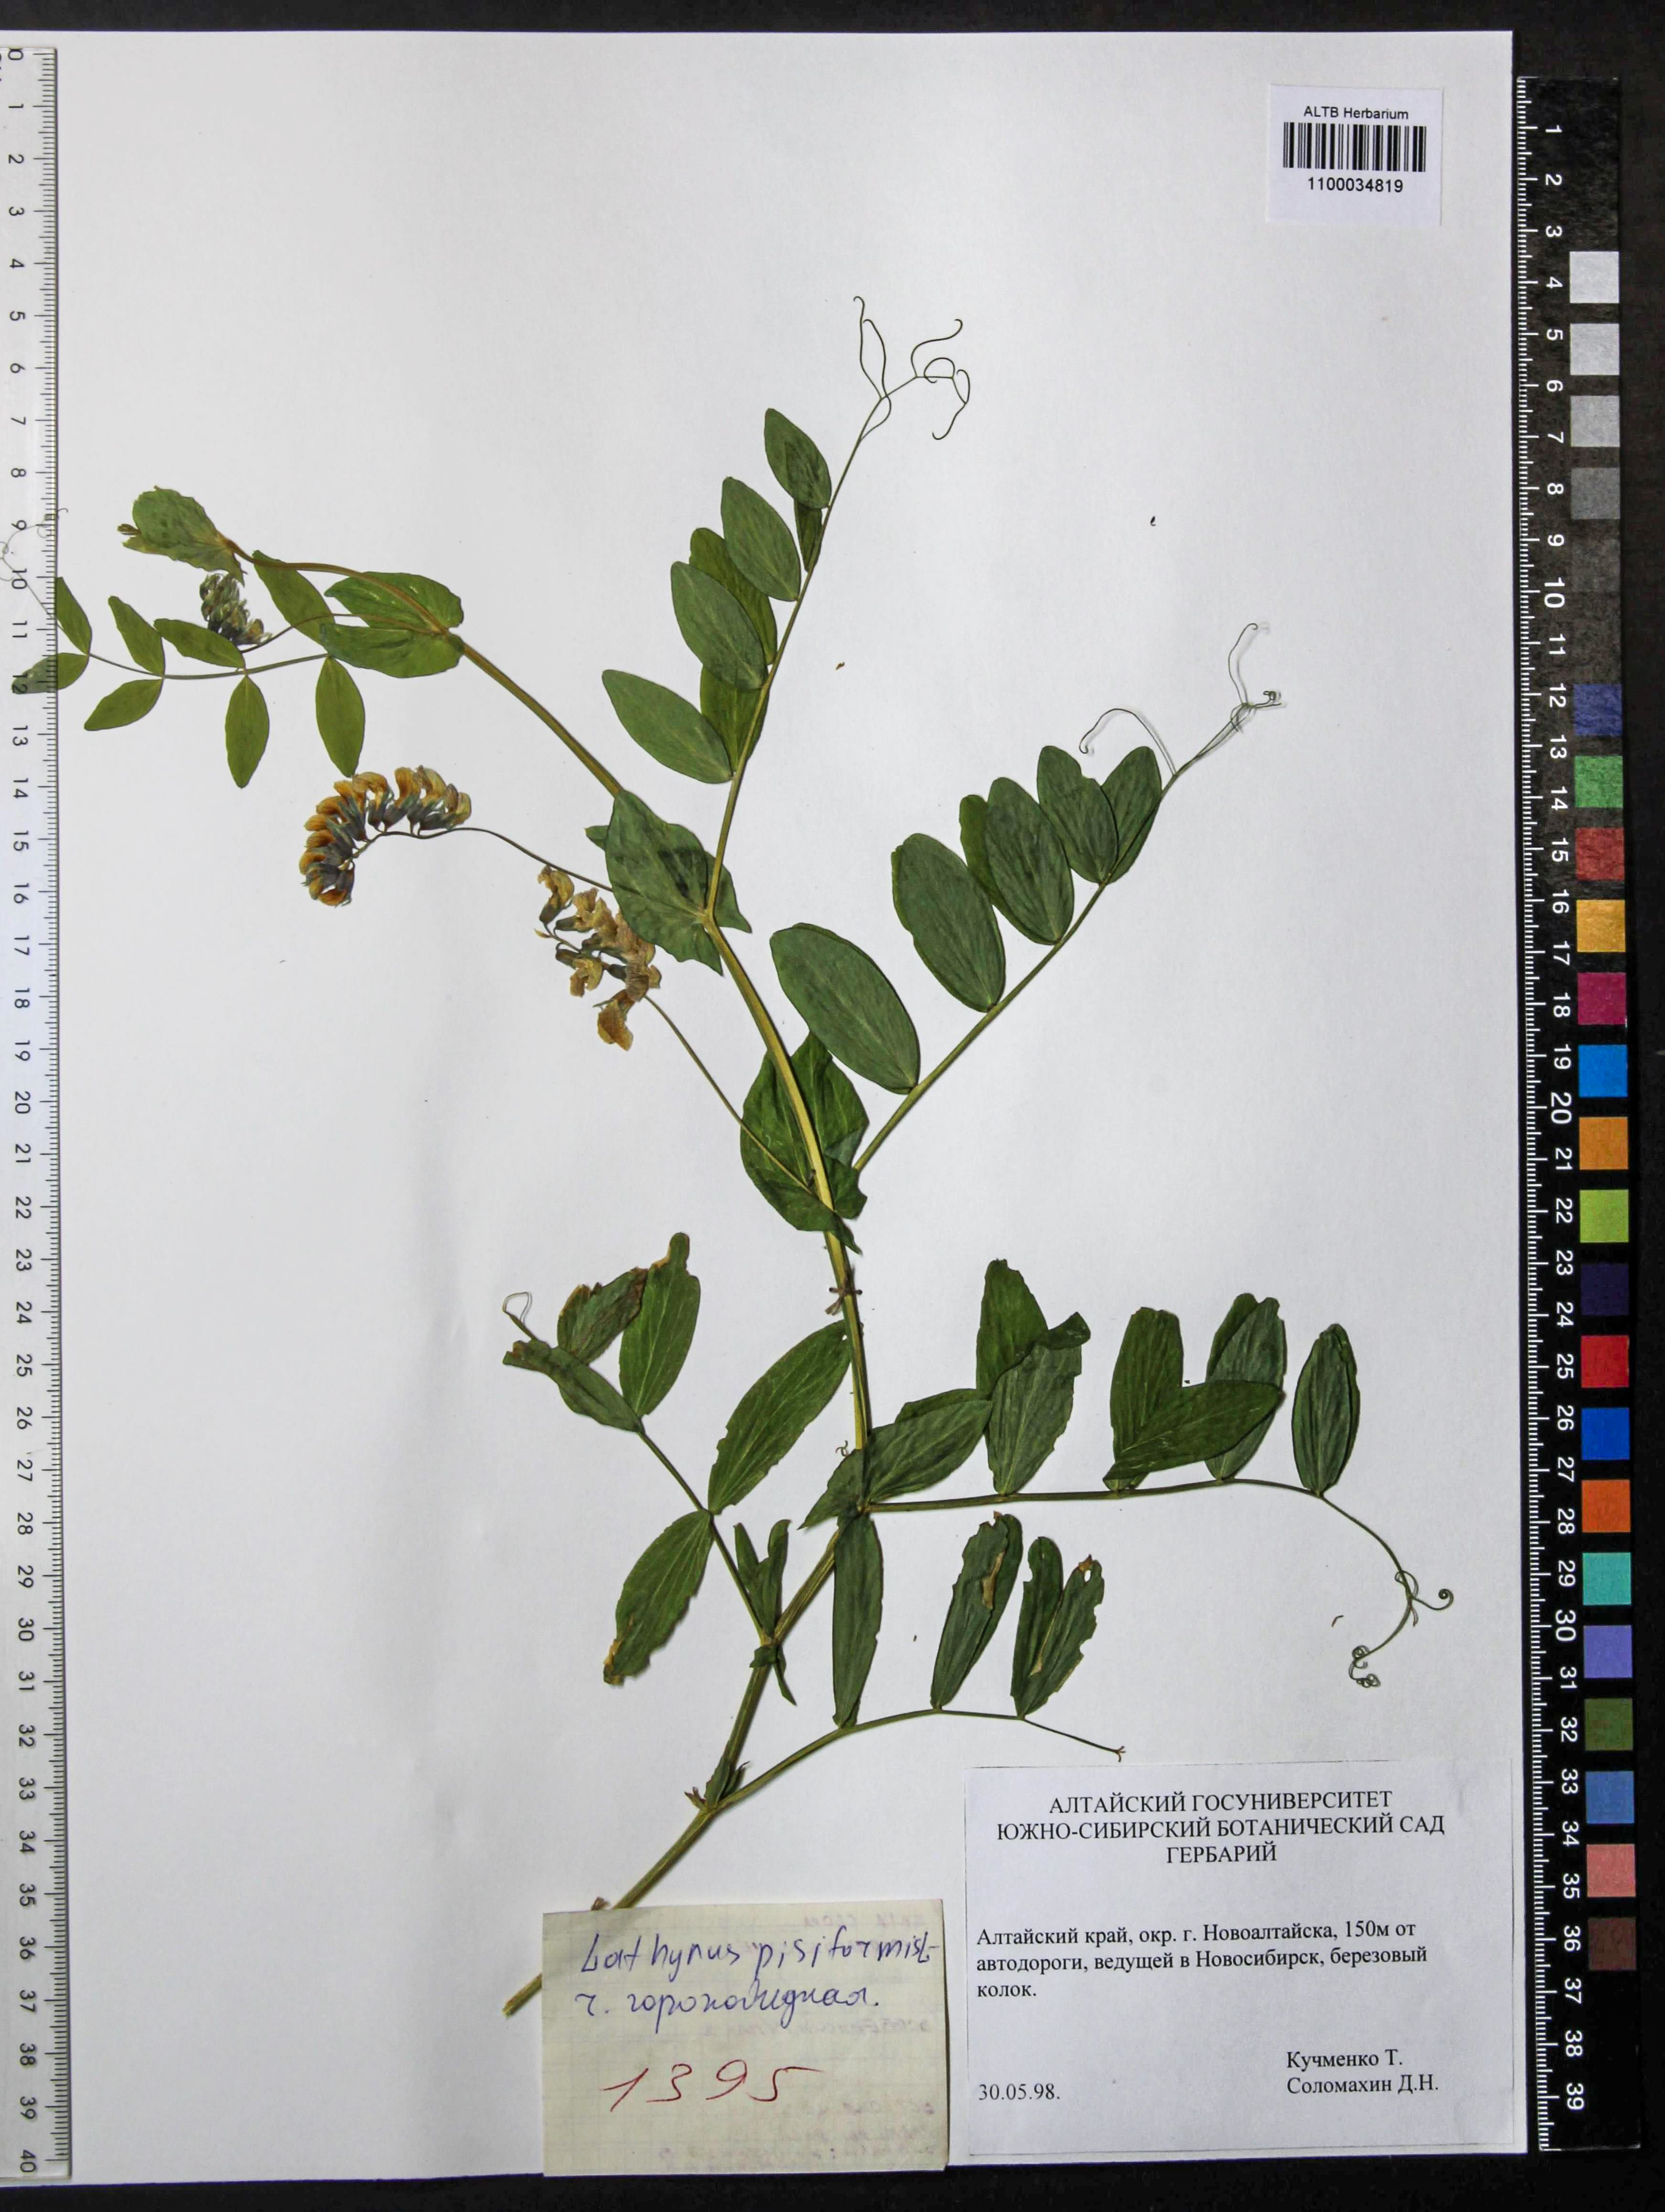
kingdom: Plantae
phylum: Tracheophyta
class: Magnoliopsida
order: Fabales
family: Fabaceae
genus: Lathyrus
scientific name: Lathyrus pisiformis
